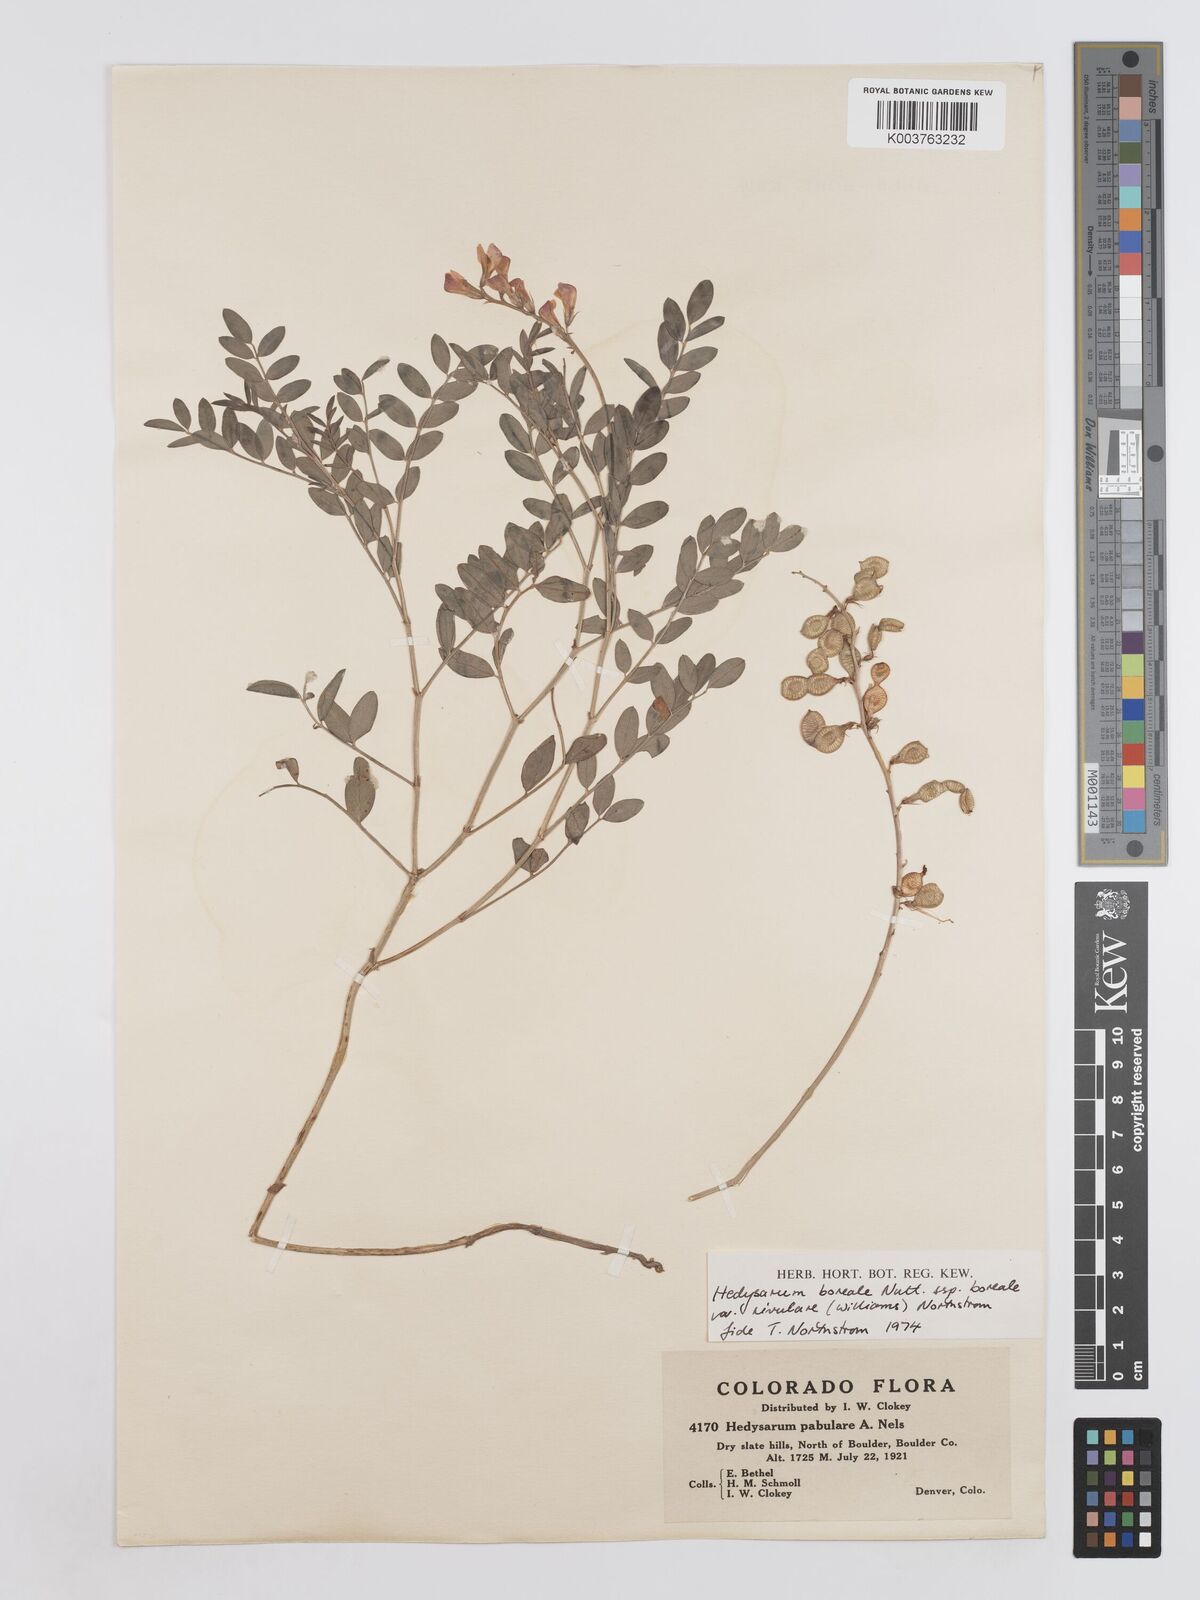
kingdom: Plantae
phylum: Tracheophyta
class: Magnoliopsida
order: Fabales
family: Fabaceae
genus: Hedysarum
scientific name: Hedysarum boreale
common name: Northern sweet-vetch
